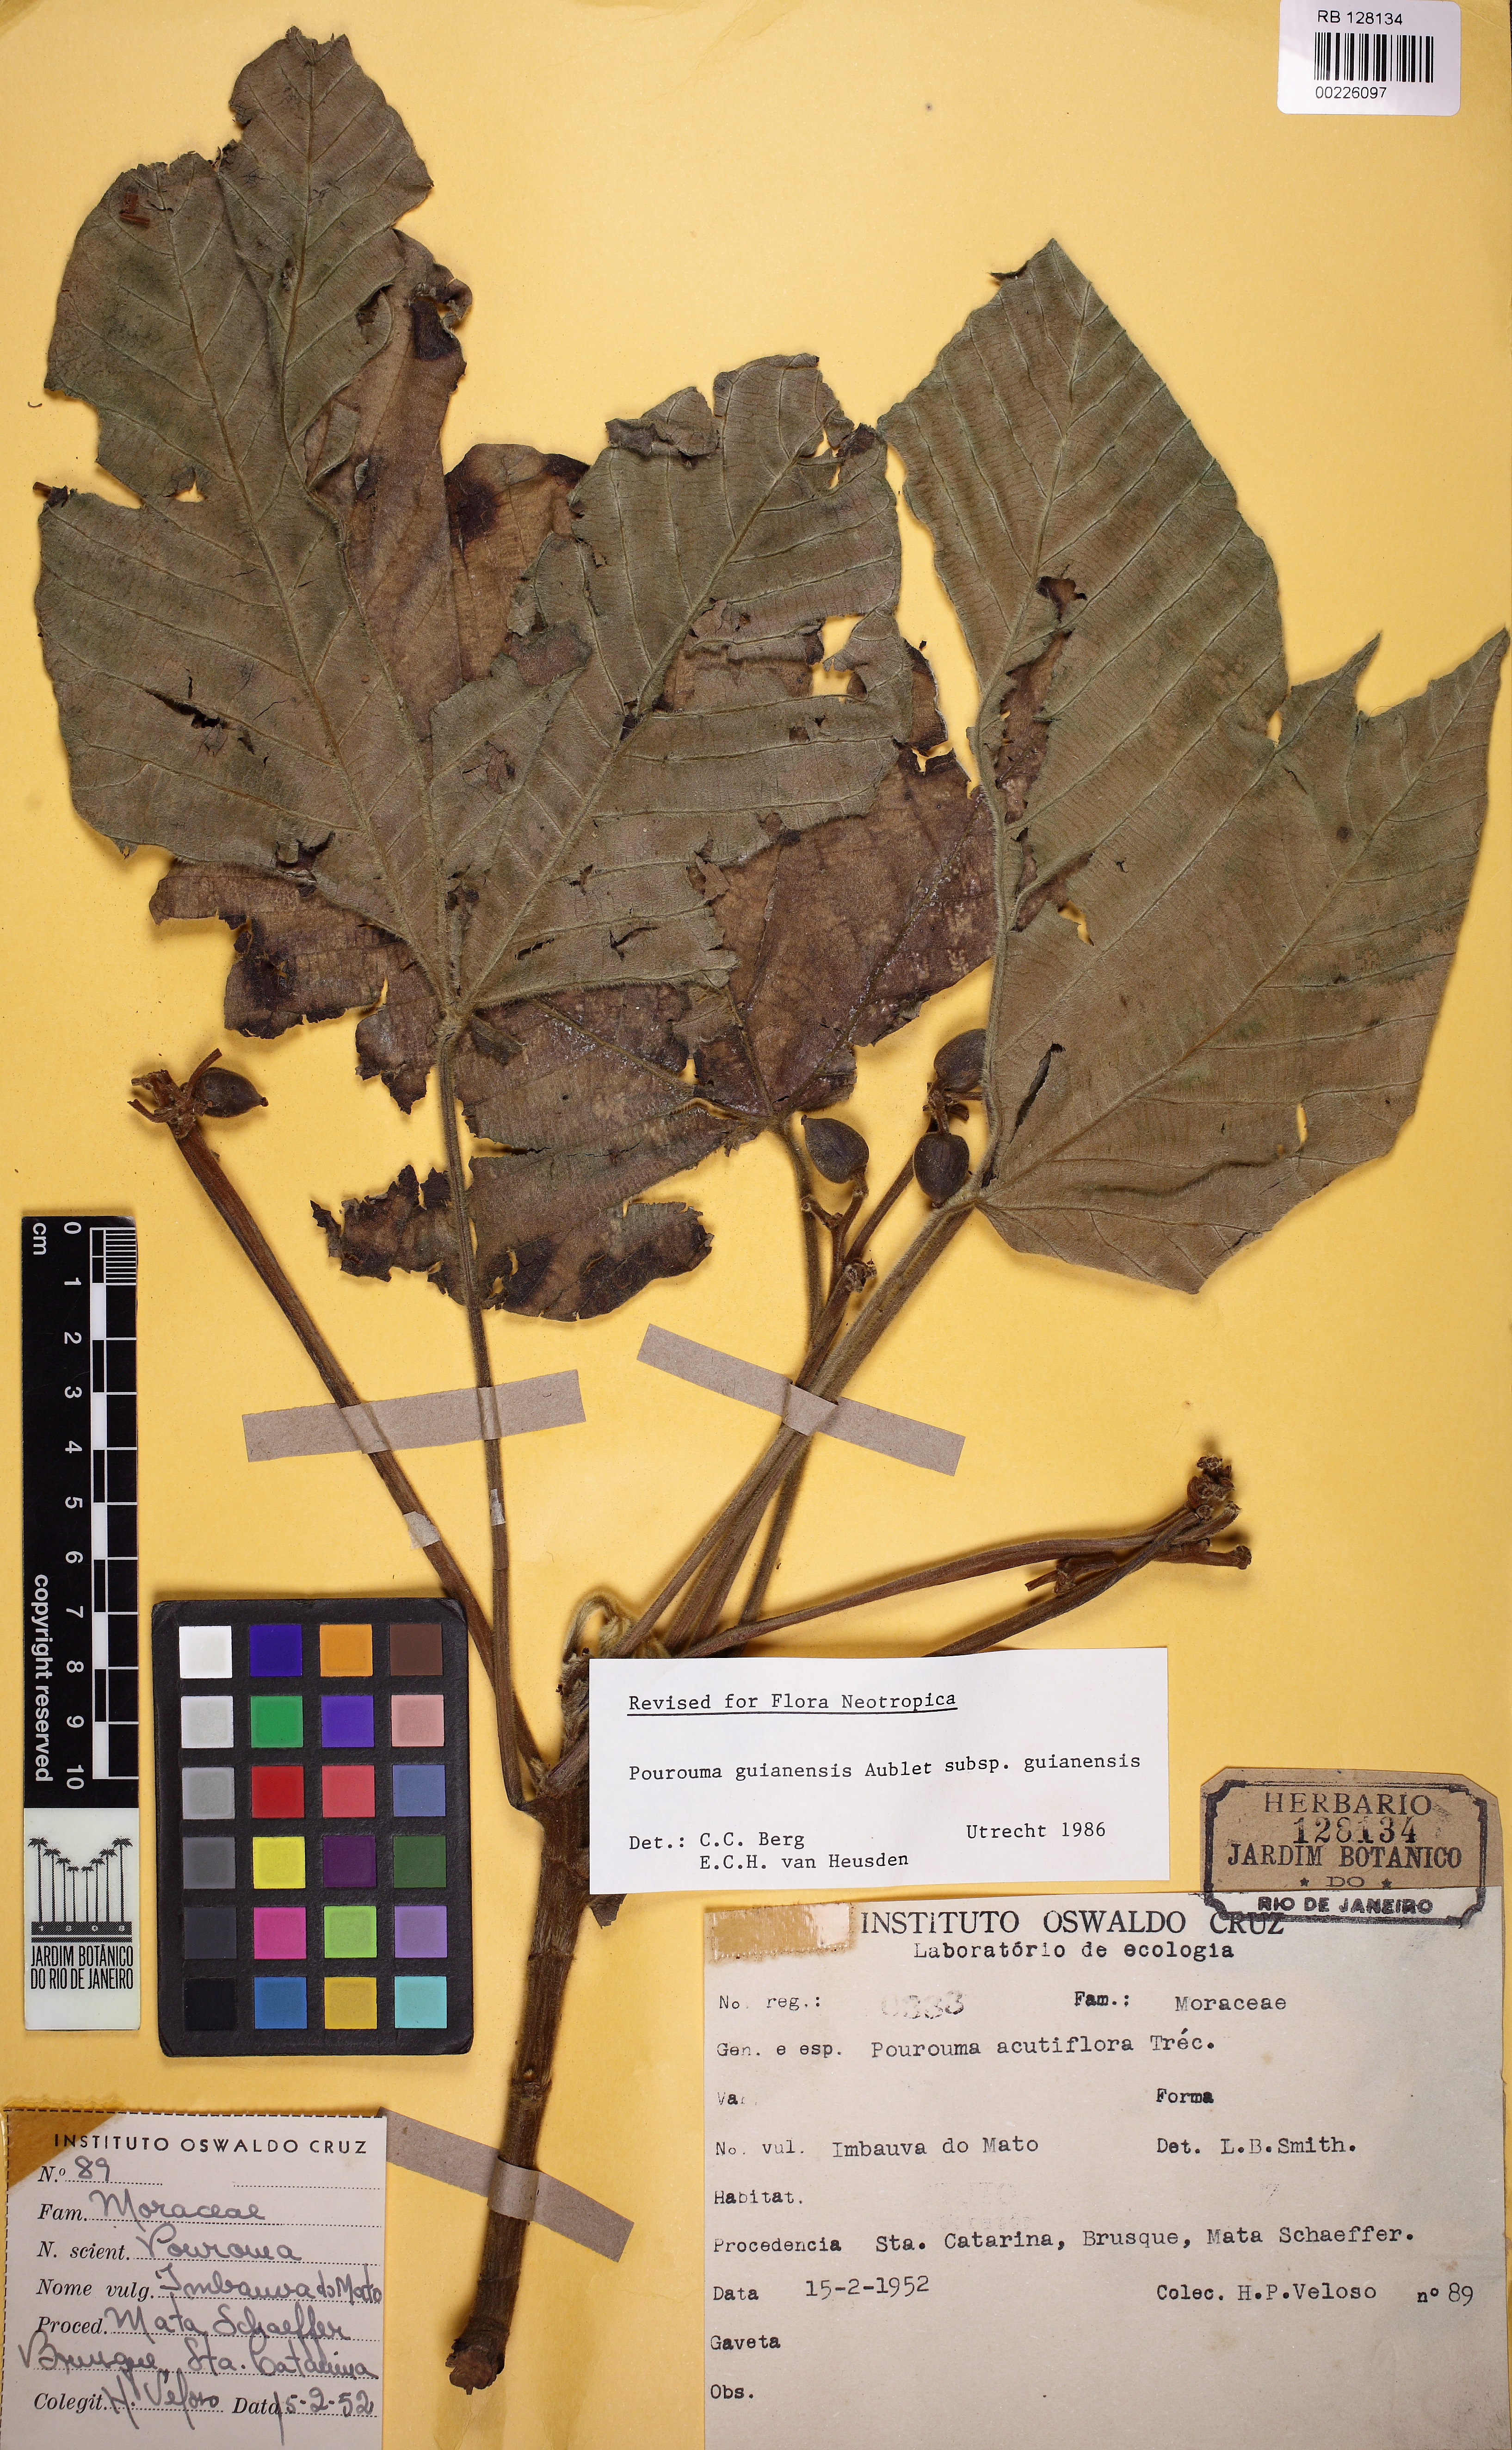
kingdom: Plantae
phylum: Tracheophyta
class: Magnoliopsida
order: Rosales
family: Urticaceae
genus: Pourouma
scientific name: Pourouma guianensis
